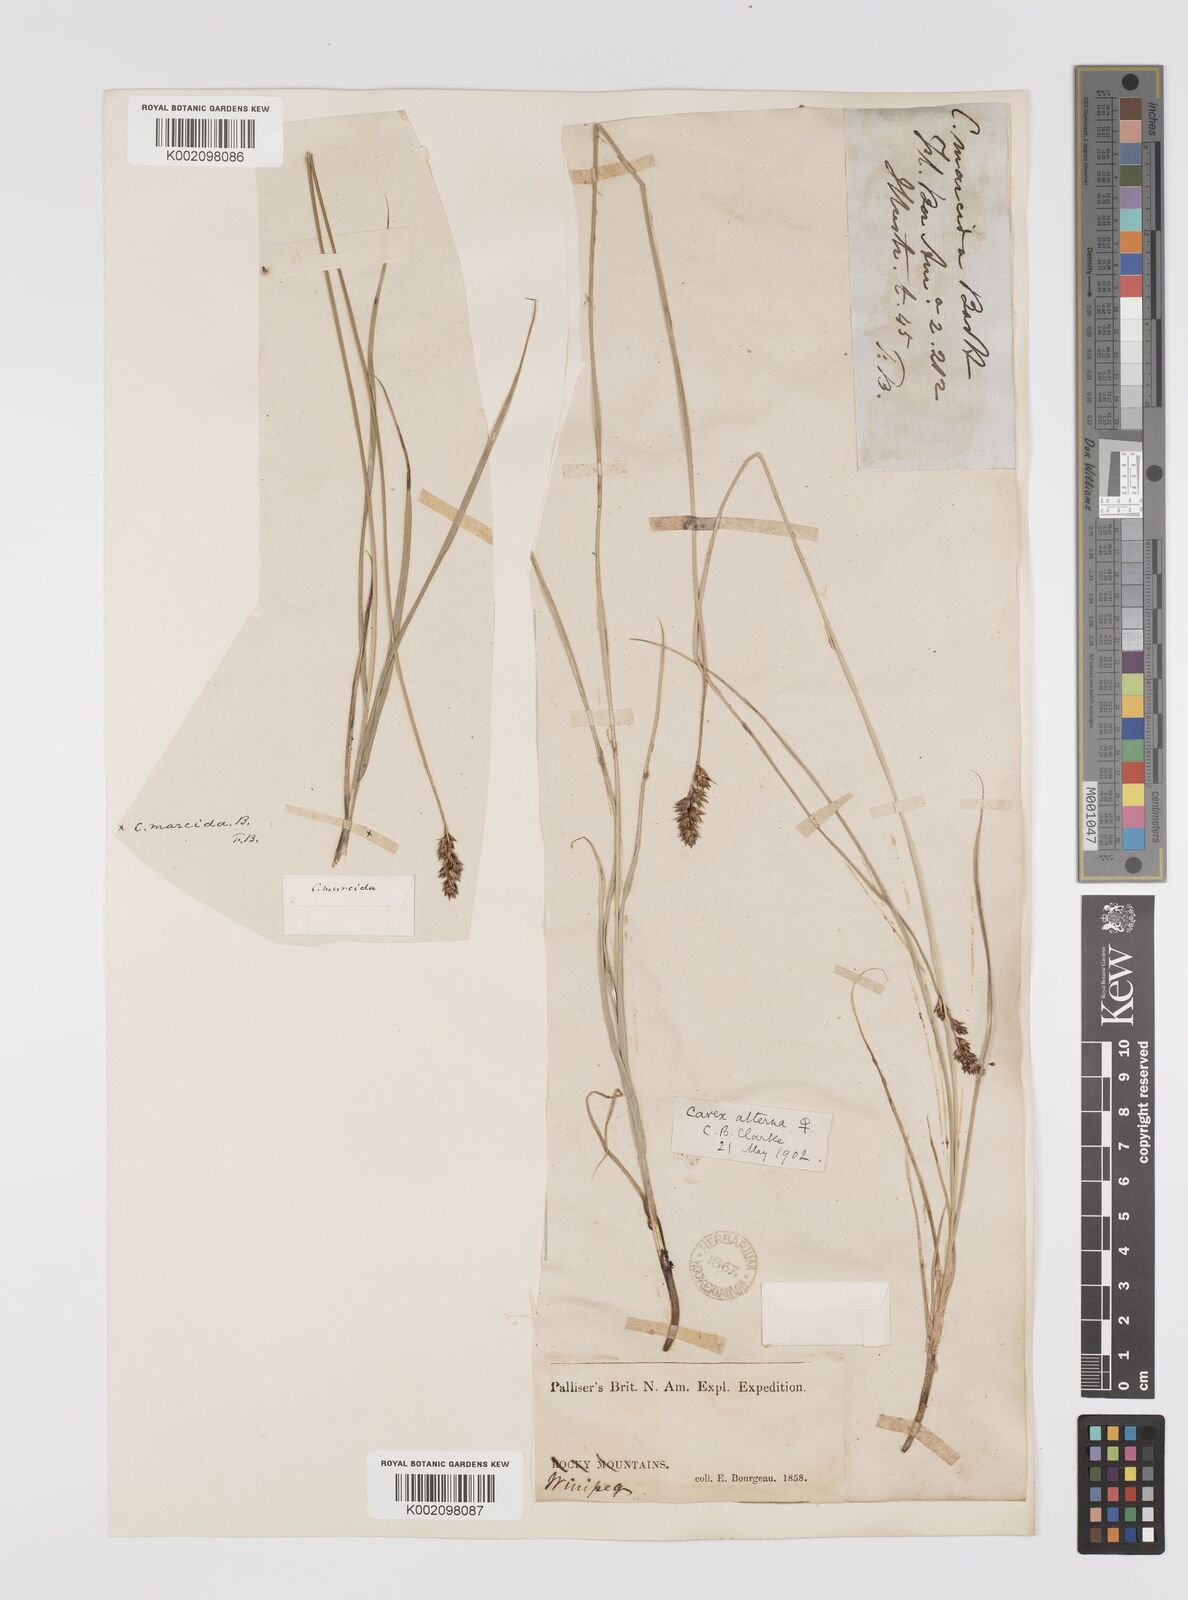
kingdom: Plantae
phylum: Tracheophyta
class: Liliopsida
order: Poales
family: Cyperaceae
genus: Carex
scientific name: Carex praegracilis
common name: Black creeper sedge
